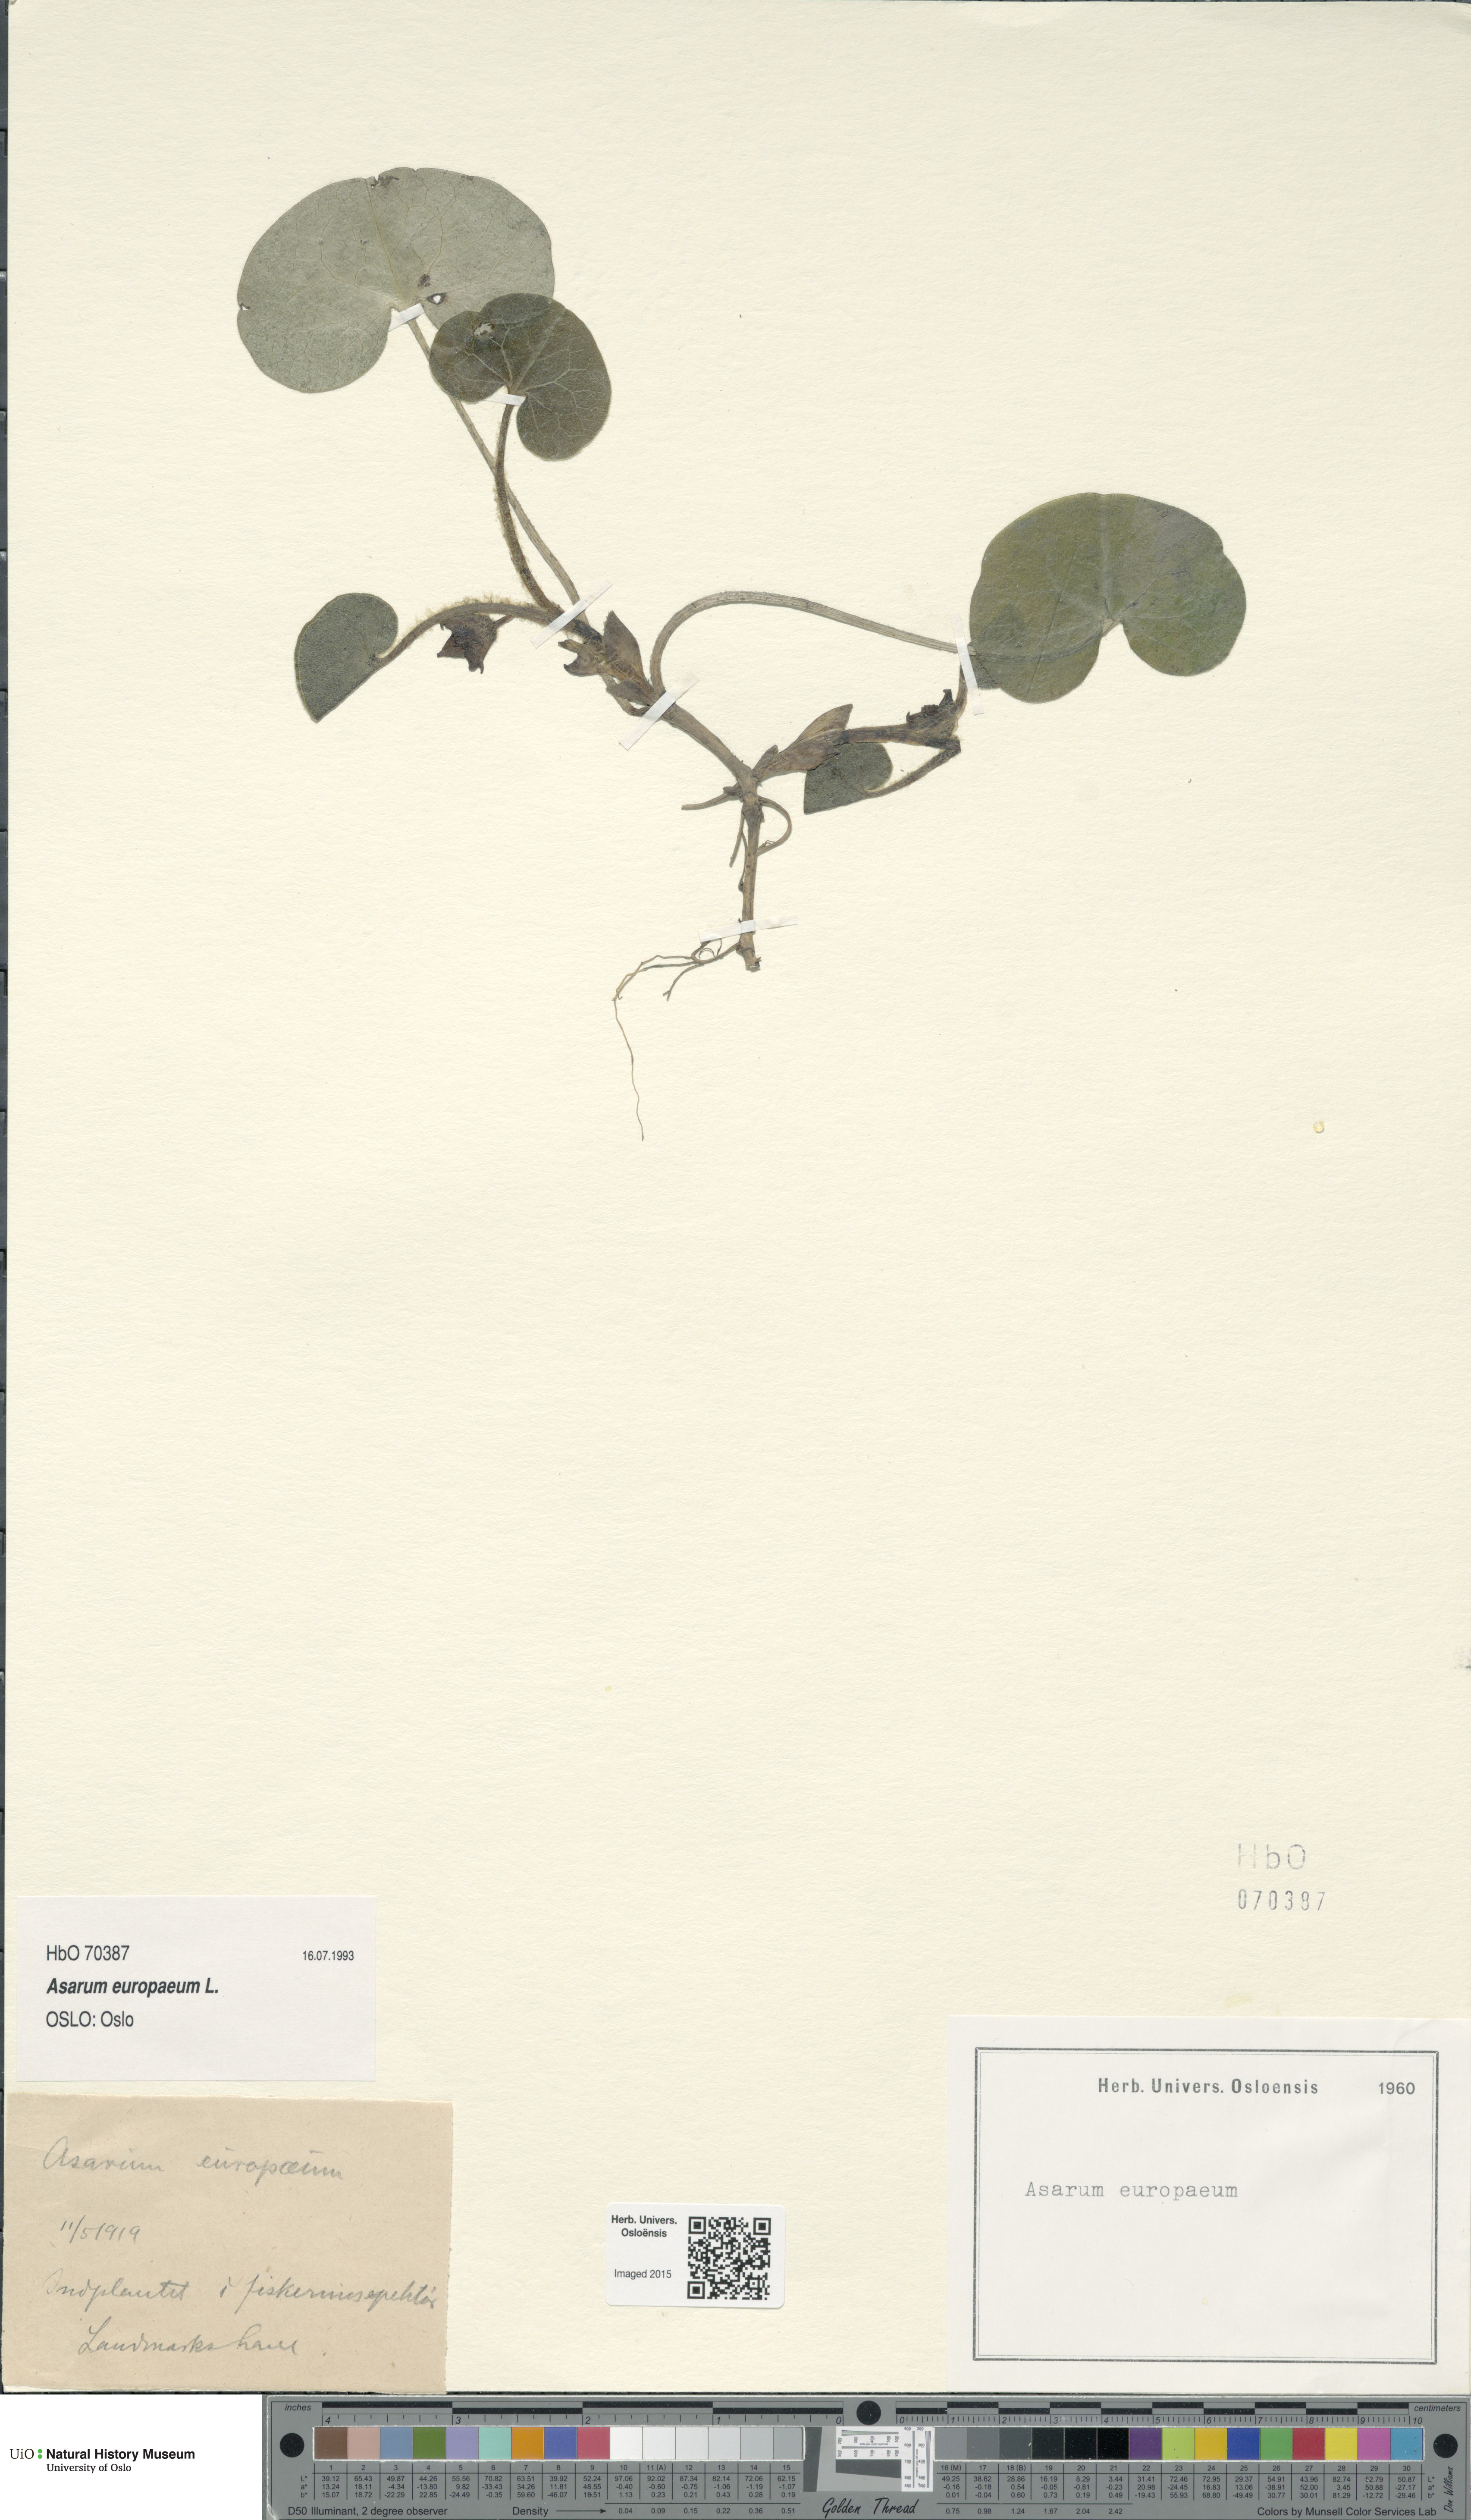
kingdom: Plantae
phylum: Tracheophyta
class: Magnoliopsida
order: Piperales
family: Aristolochiaceae
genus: Asarum
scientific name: Asarum europaeum
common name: Asarabacca
